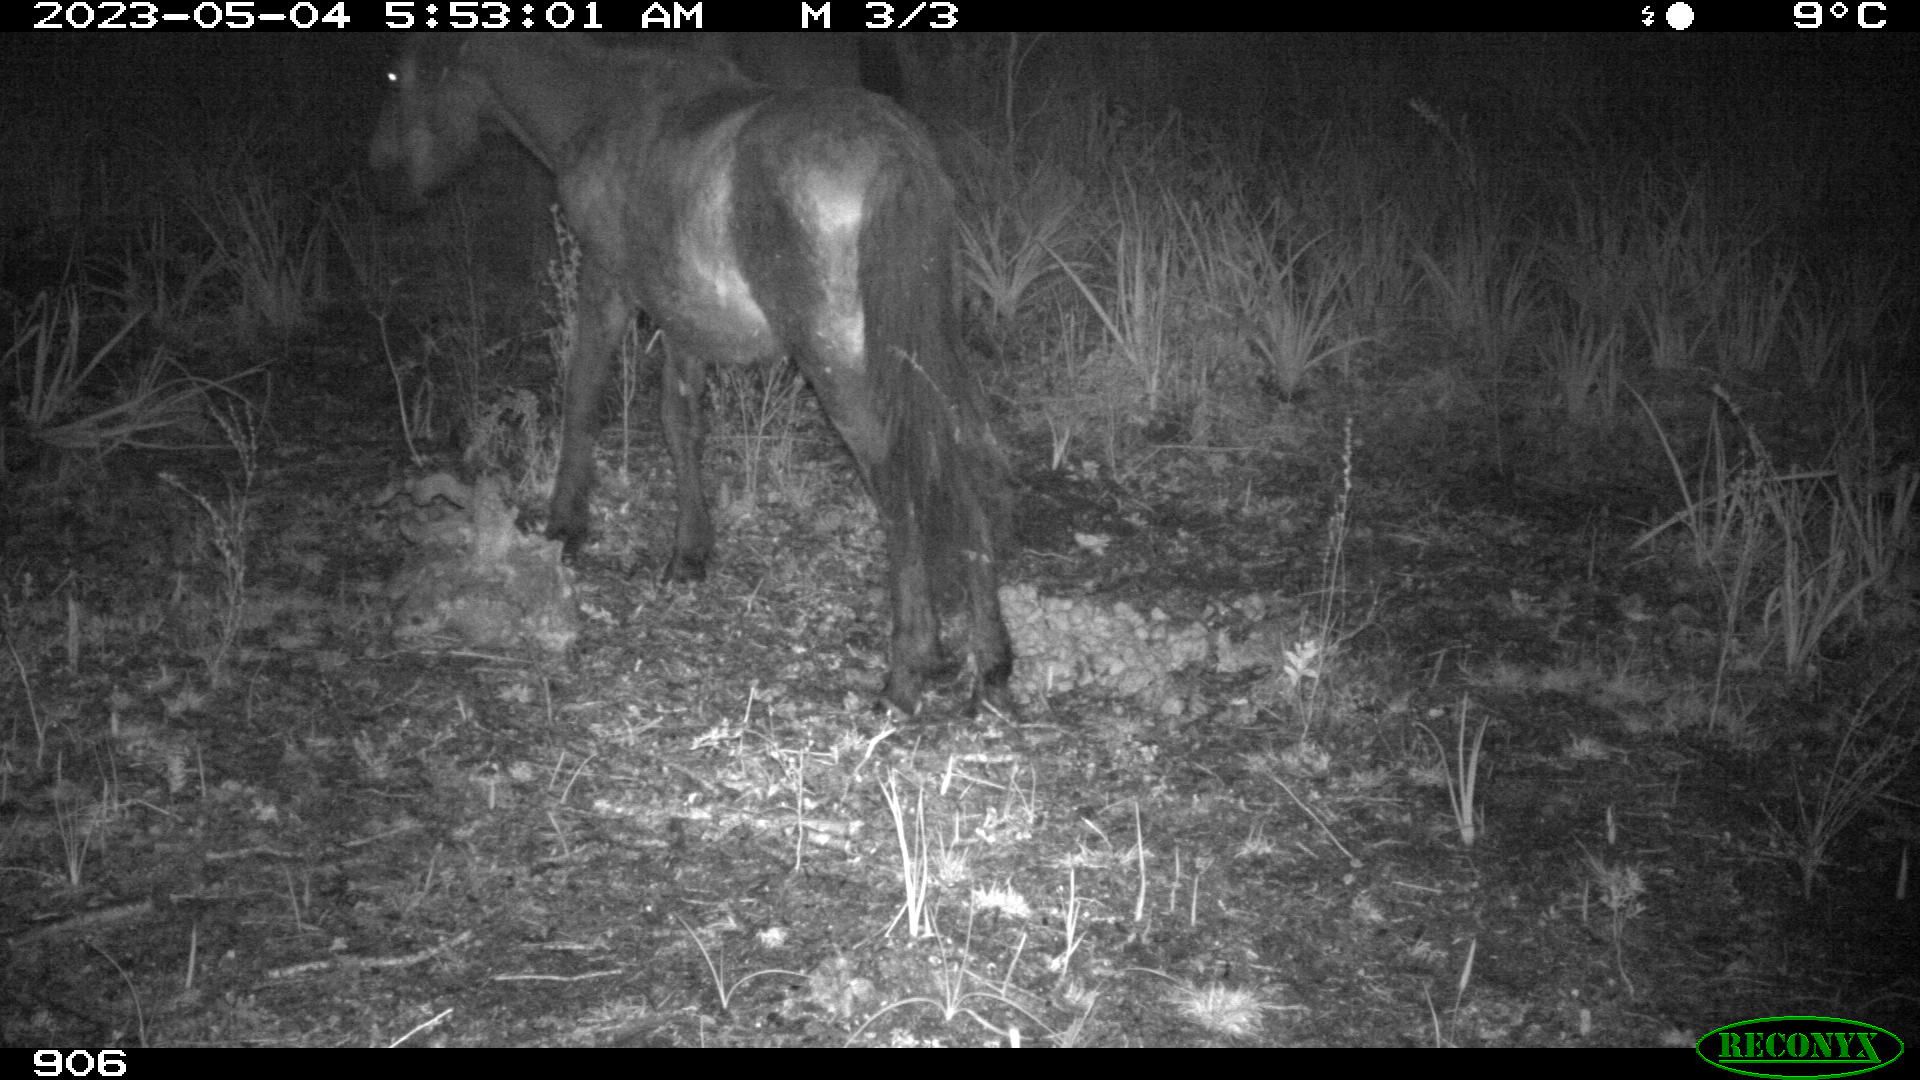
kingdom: Animalia
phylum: Chordata
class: Mammalia
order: Perissodactyla
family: Equidae
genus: Equus
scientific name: Equus caballus
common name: Horse
